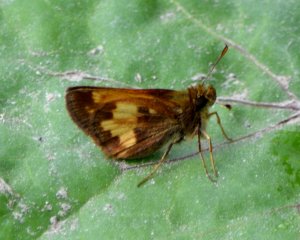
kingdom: Animalia
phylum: Arthropoda
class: Insecta
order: Lepidoptera
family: Hesperiidae
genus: Lon
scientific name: Lon hobomok
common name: Hobomok Skipper
